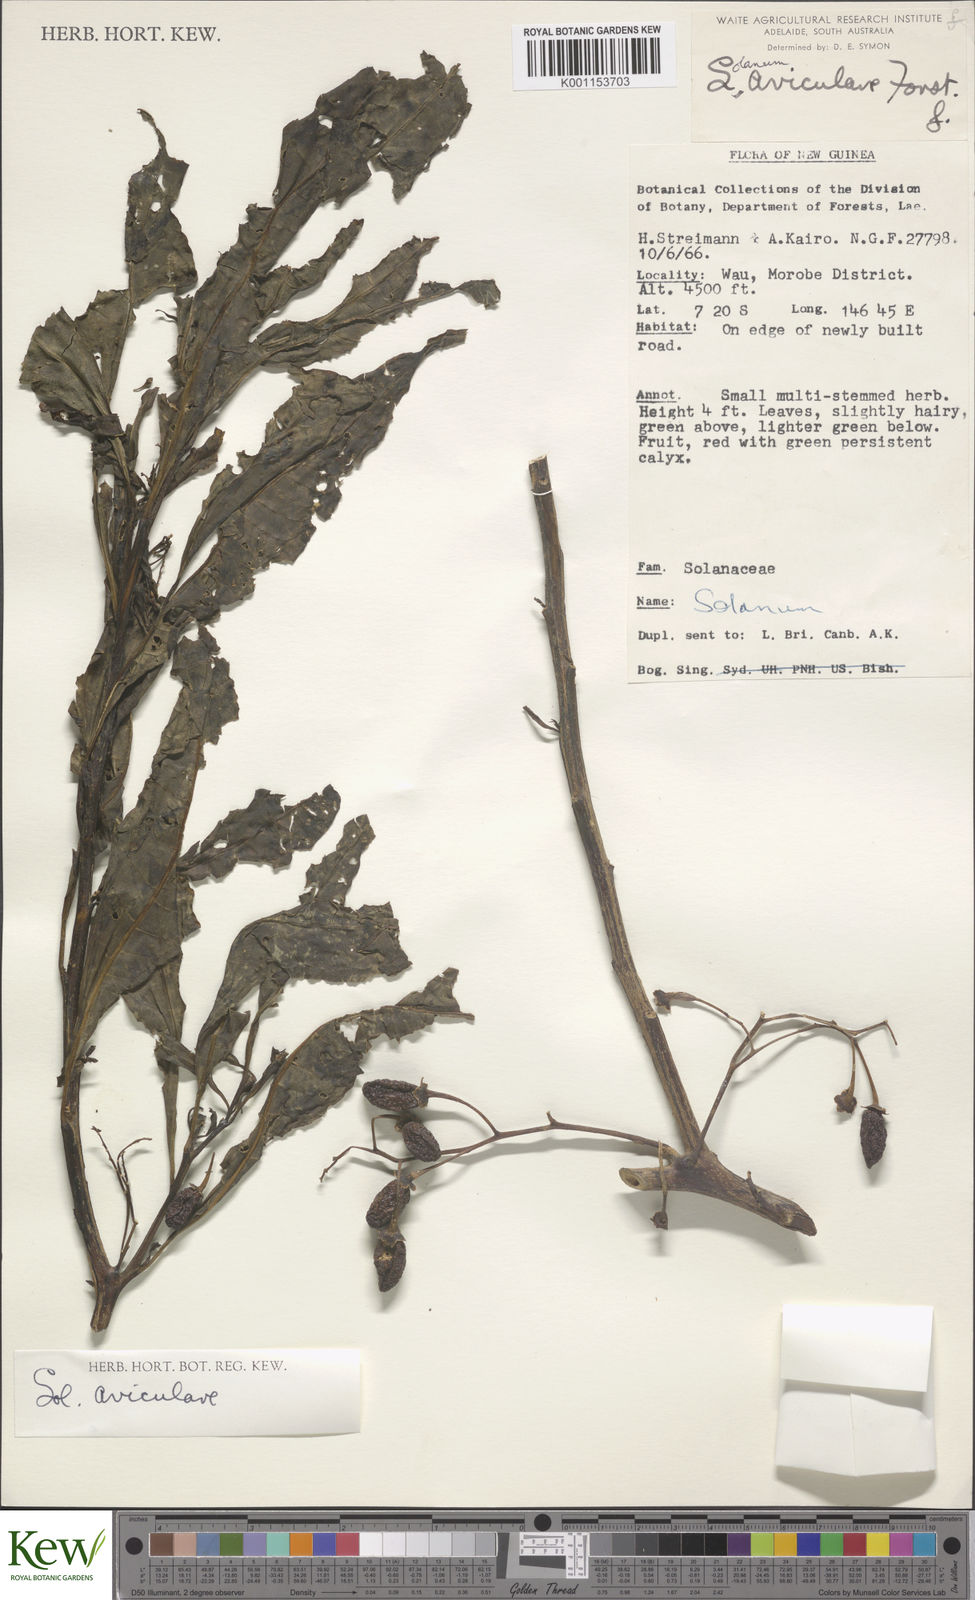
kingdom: Plantae
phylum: Tracheophyta
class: Magnoliopsida
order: Solanales
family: Solanaceae
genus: Solanum
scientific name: Solanum aviculare
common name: New zealand nightshade
